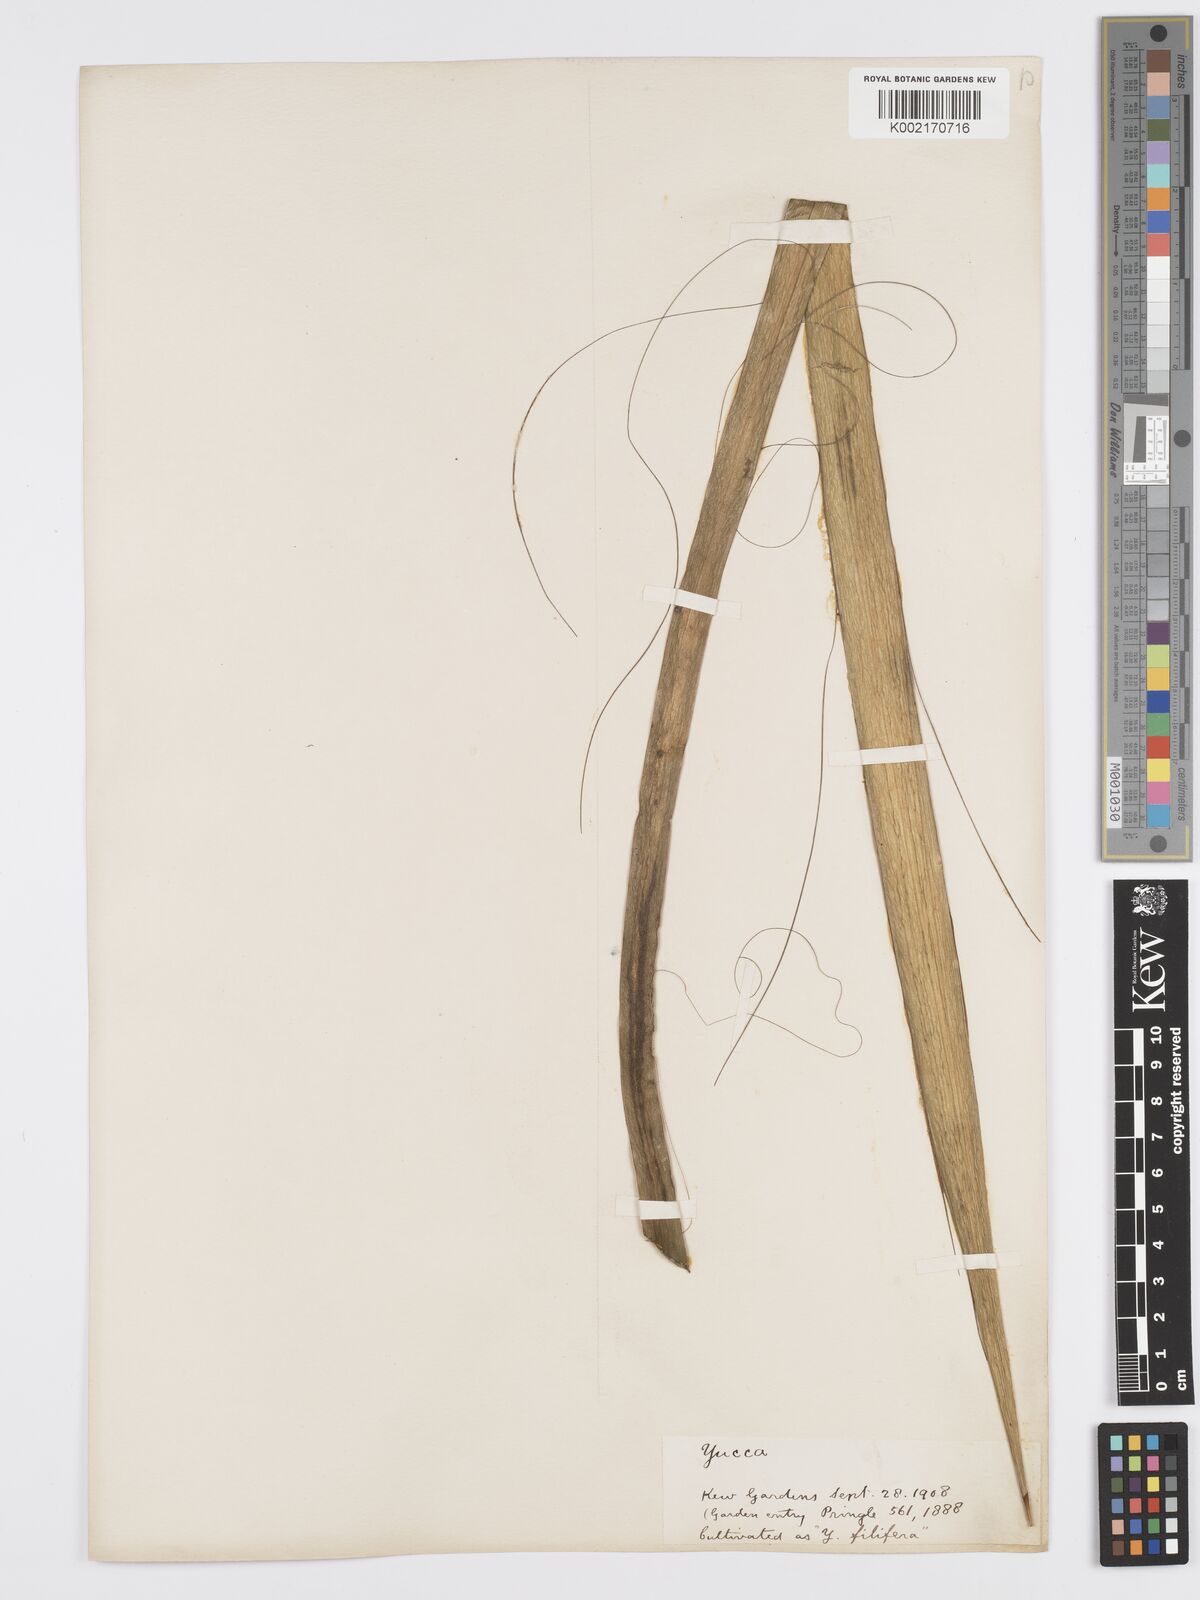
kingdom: Plantae
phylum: Tracheophyta
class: Liliopsida
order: Asparagales
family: Asparagaceae
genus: Yucca
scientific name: Yucca
